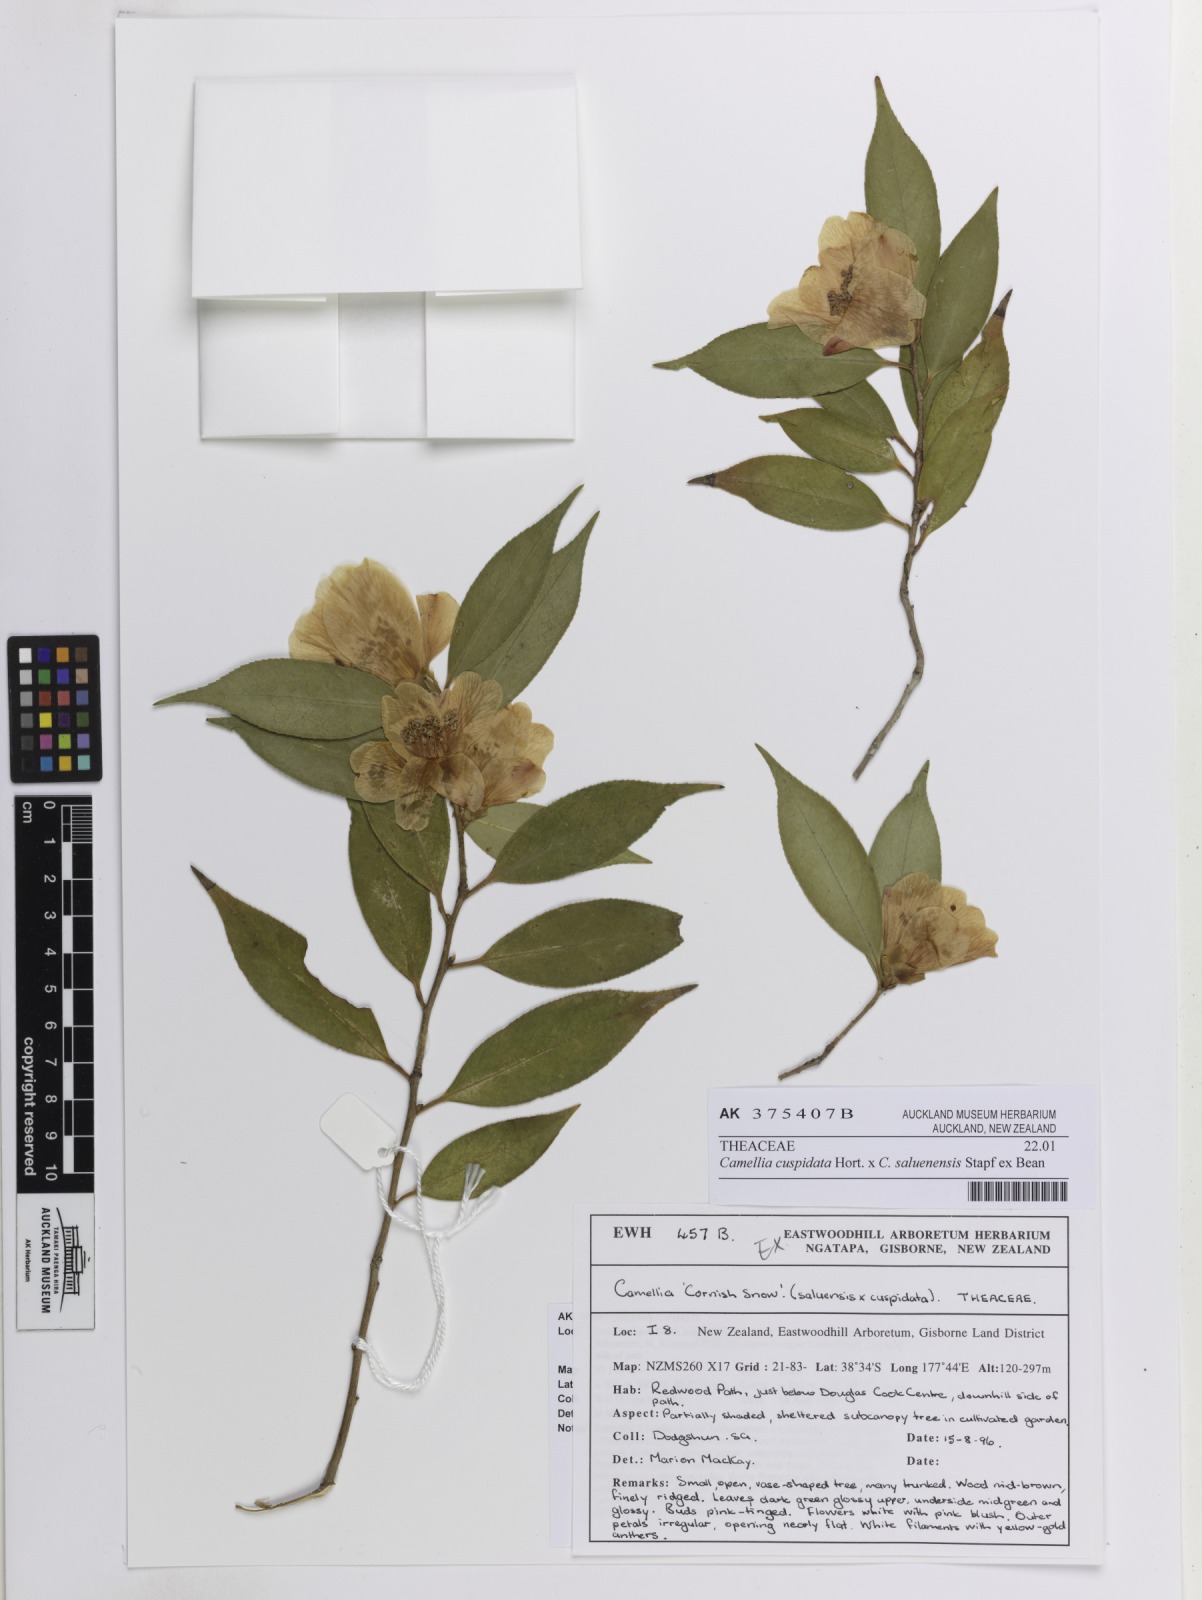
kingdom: Plantae
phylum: Tracheophyta
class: Magnoliopsida
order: Ericales
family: Theaceae
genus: Camellia
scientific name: Camellia
